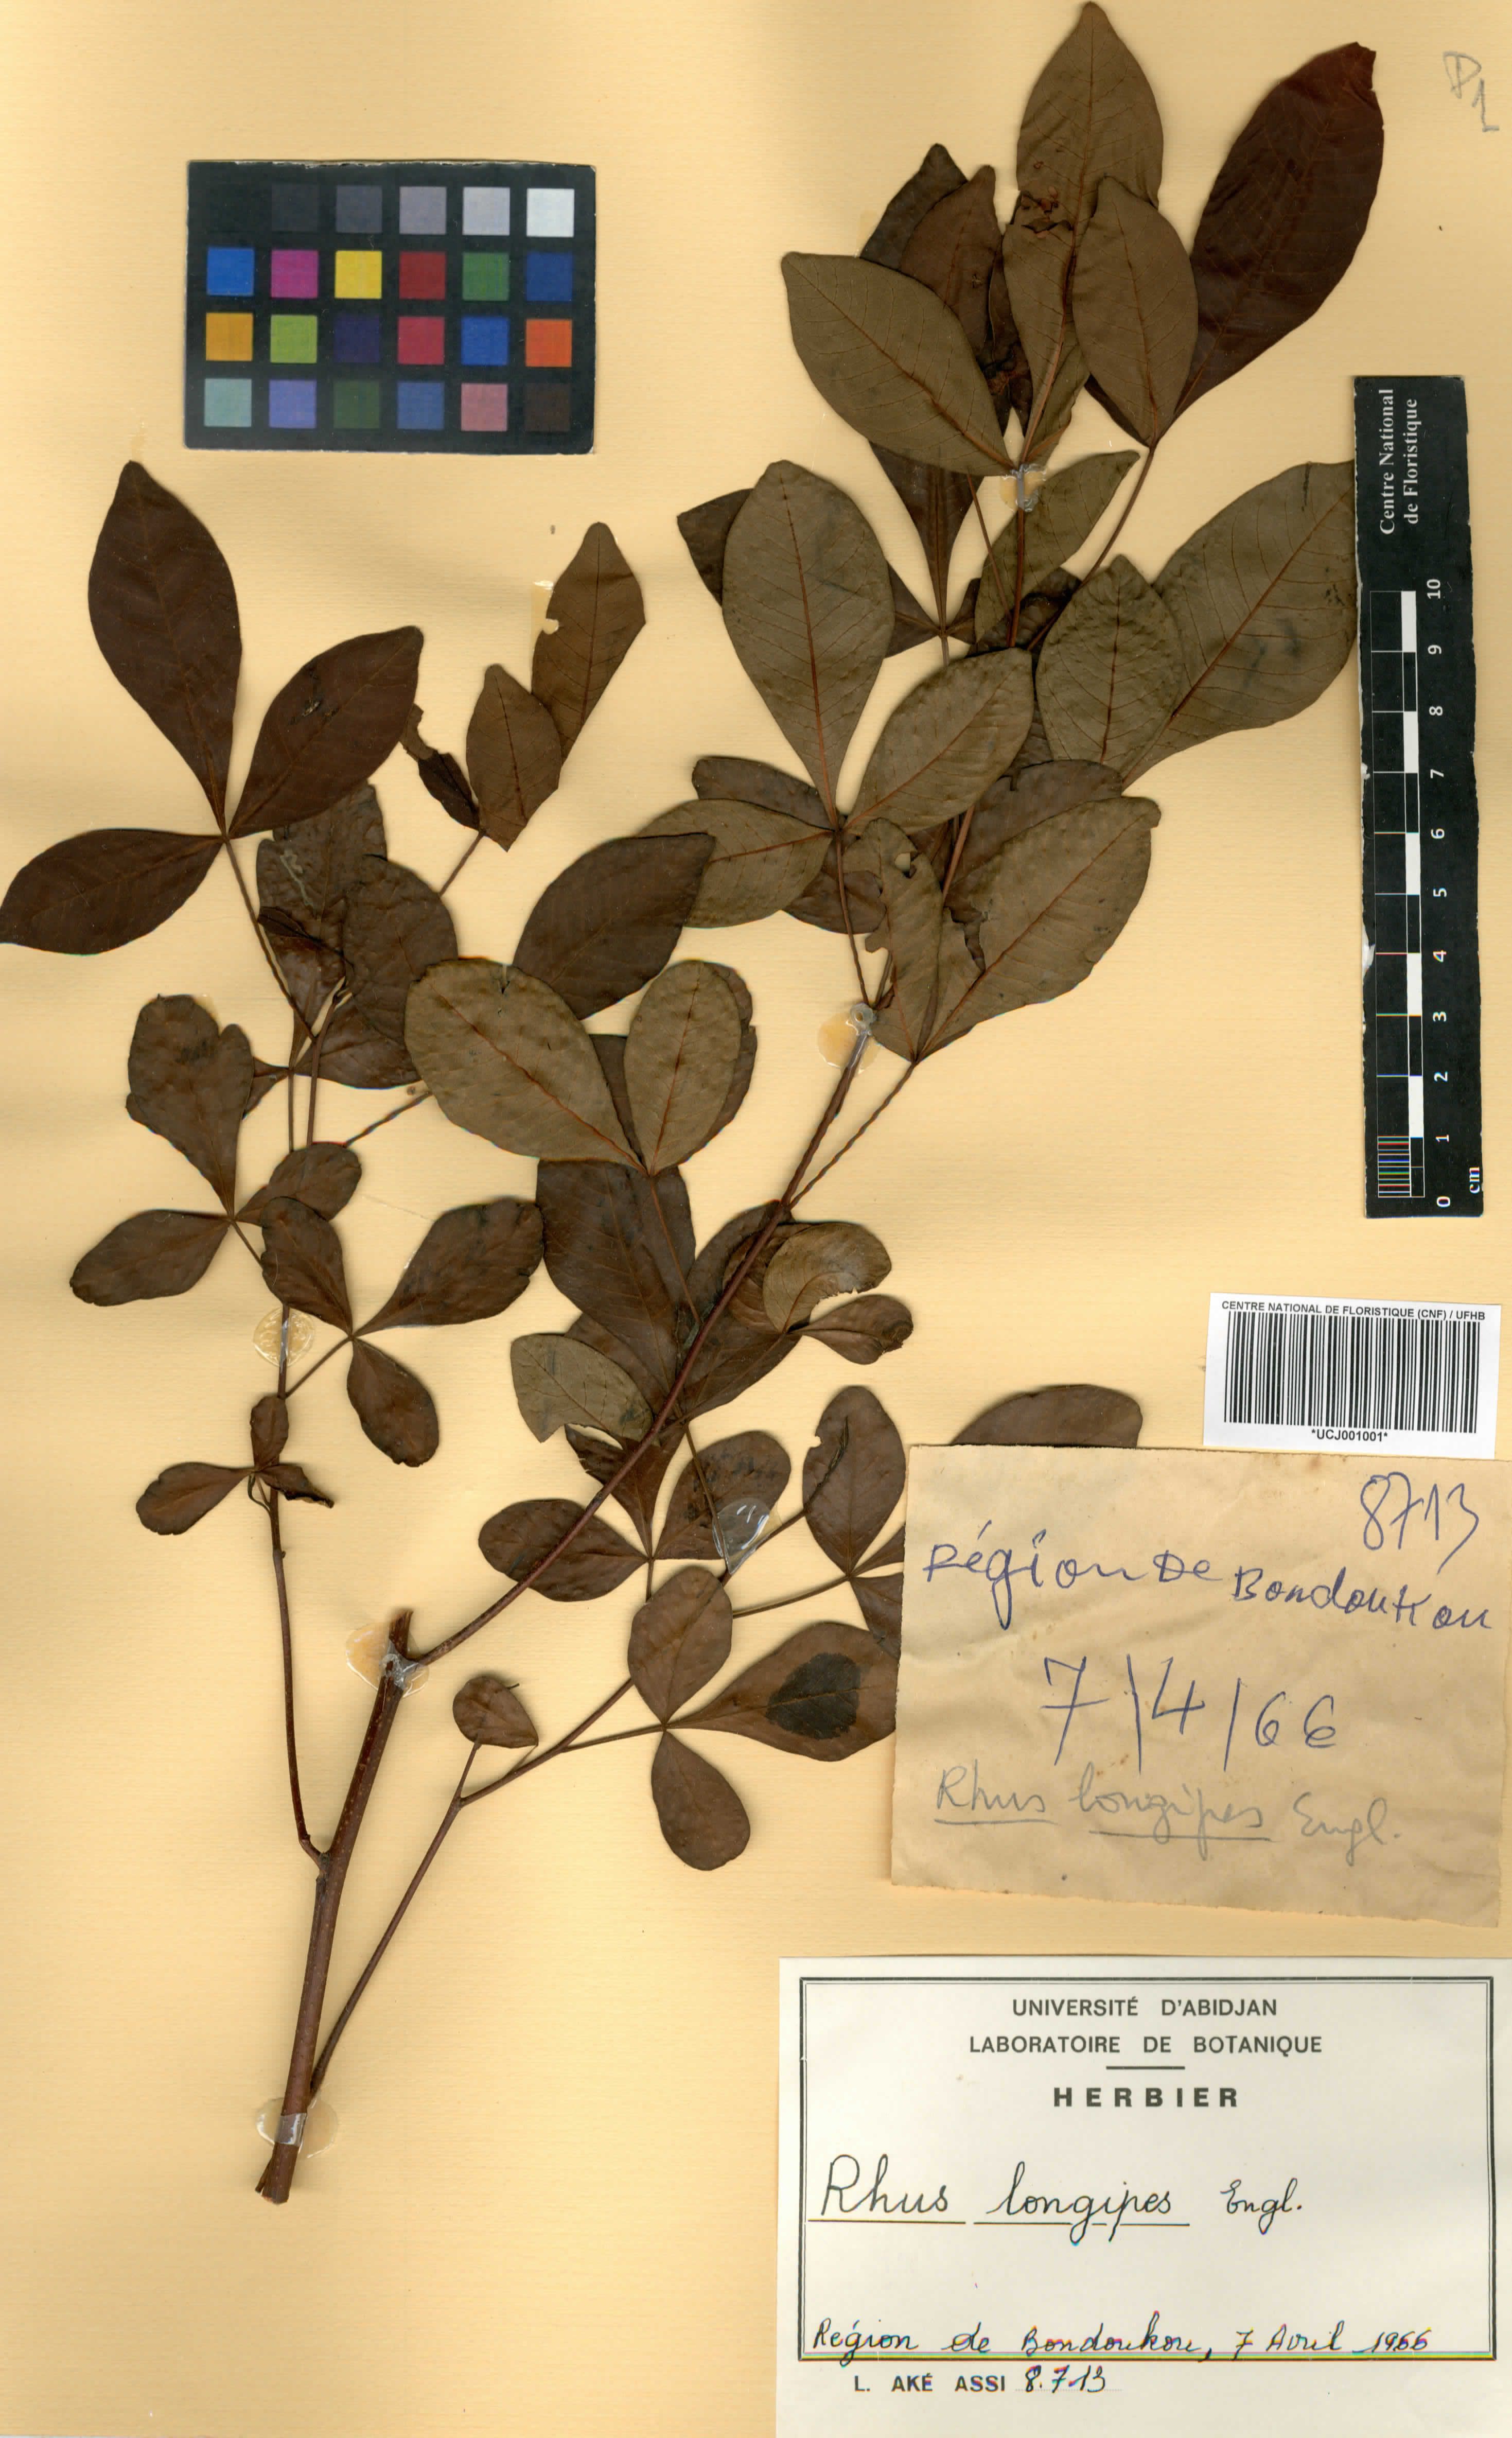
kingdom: Plantae
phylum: Tracheophyta
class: Magnoliopsida
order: Sapindales
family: Anacardiaceae
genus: Searsia
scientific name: Searsia longipes
